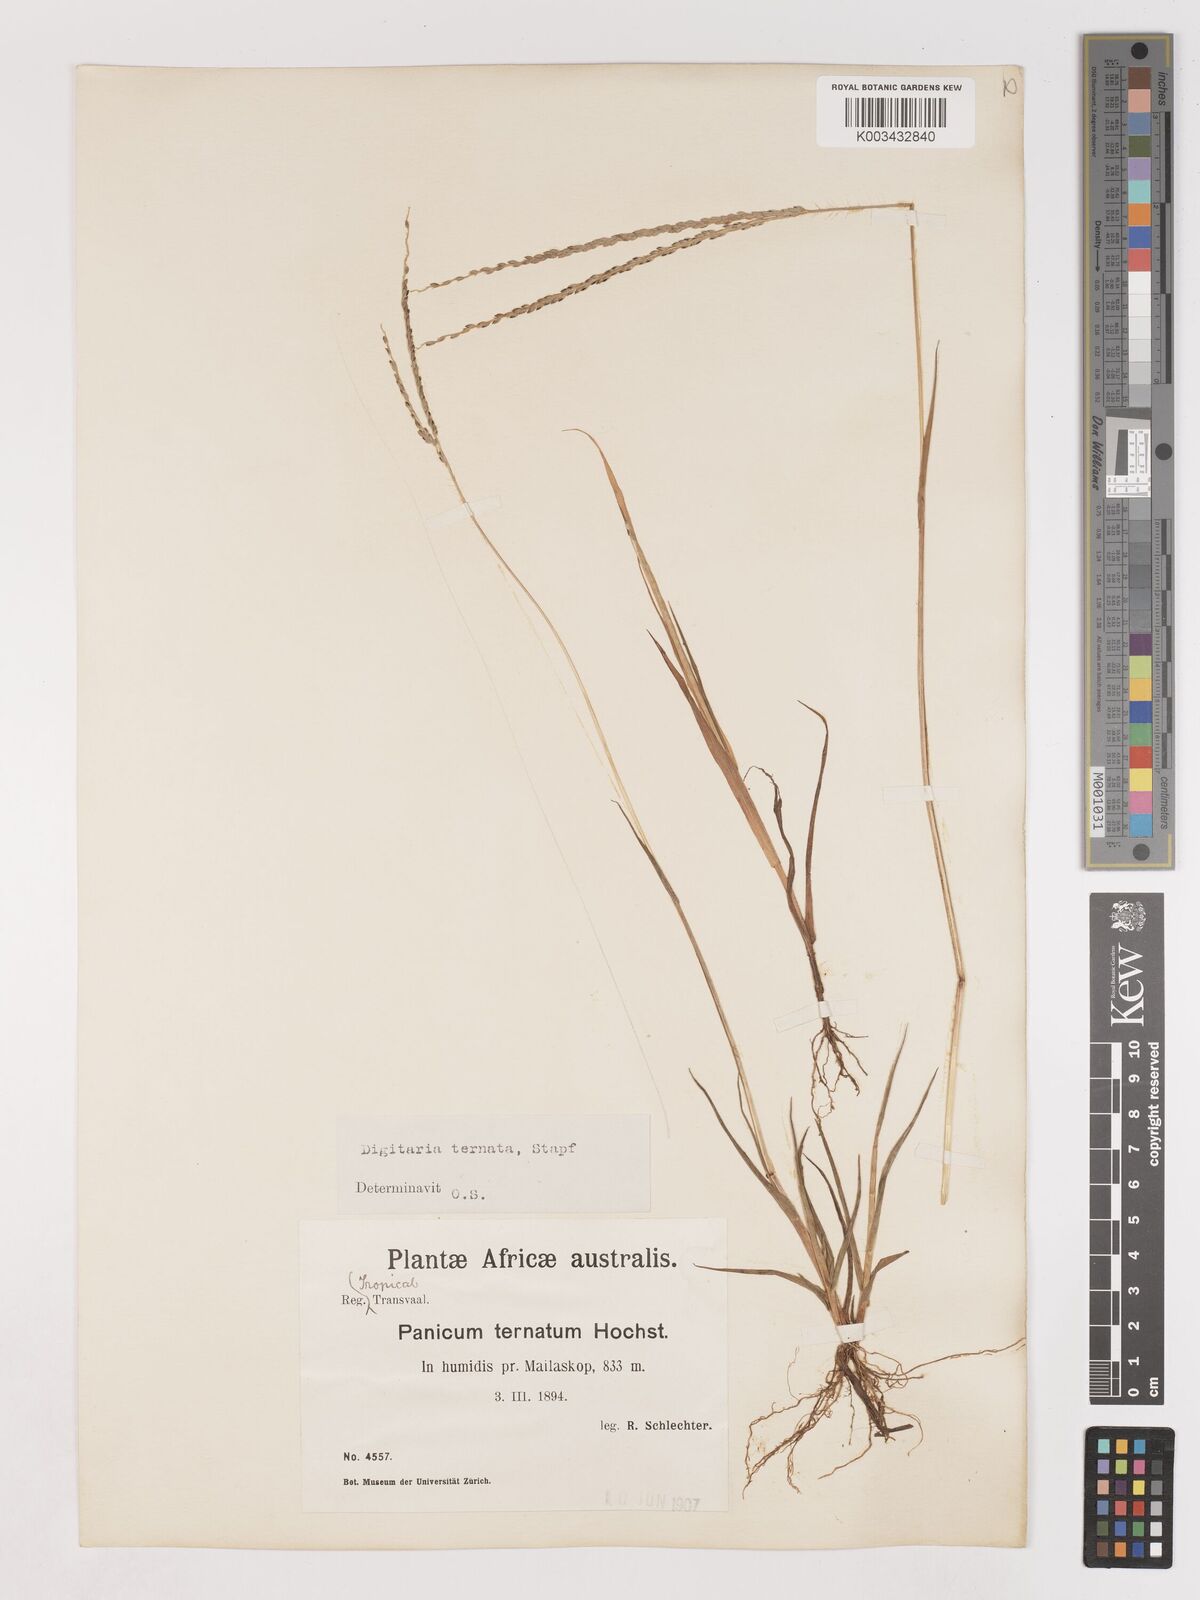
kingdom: Plantae
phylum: Tracheophyta
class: Liliopsida
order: Poales
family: Poaceae
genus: Digitaria
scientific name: Digitaria ternata
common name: Blackseed crabgrass
